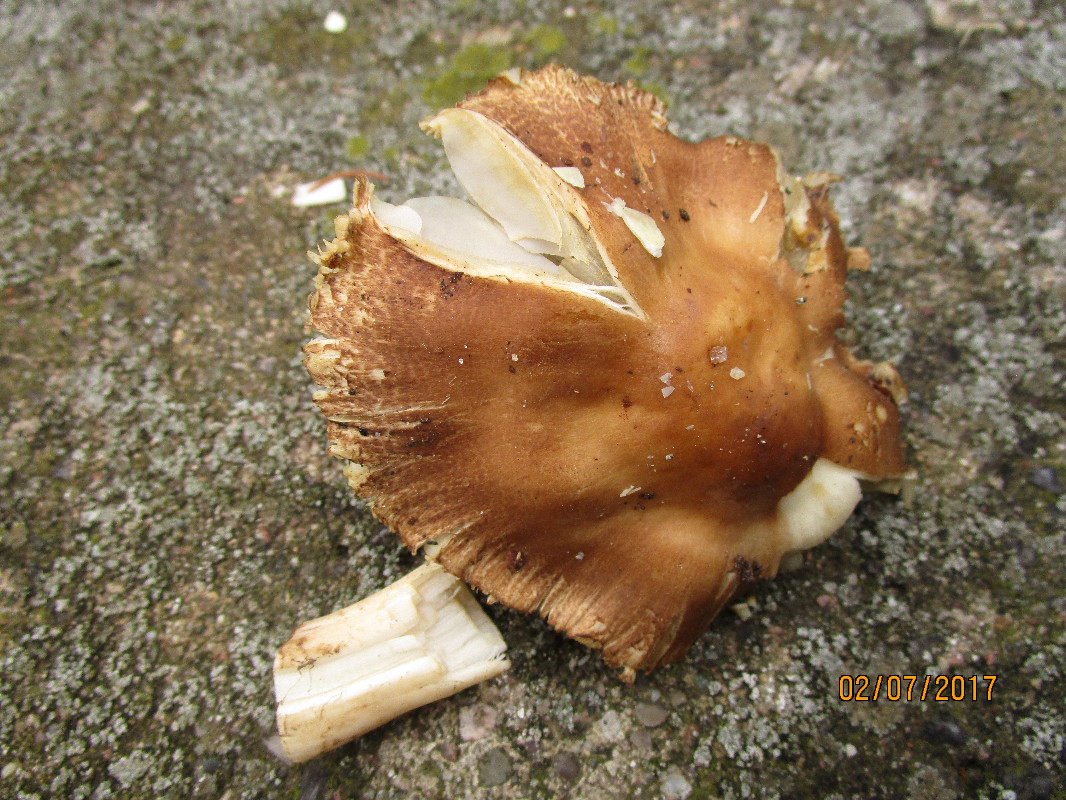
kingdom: Fungi
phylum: Basidiomycota
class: Agaricomycetes
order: Agaricales
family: Inocybaceae
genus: Inocybe
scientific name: Inocybe
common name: trævlhat
